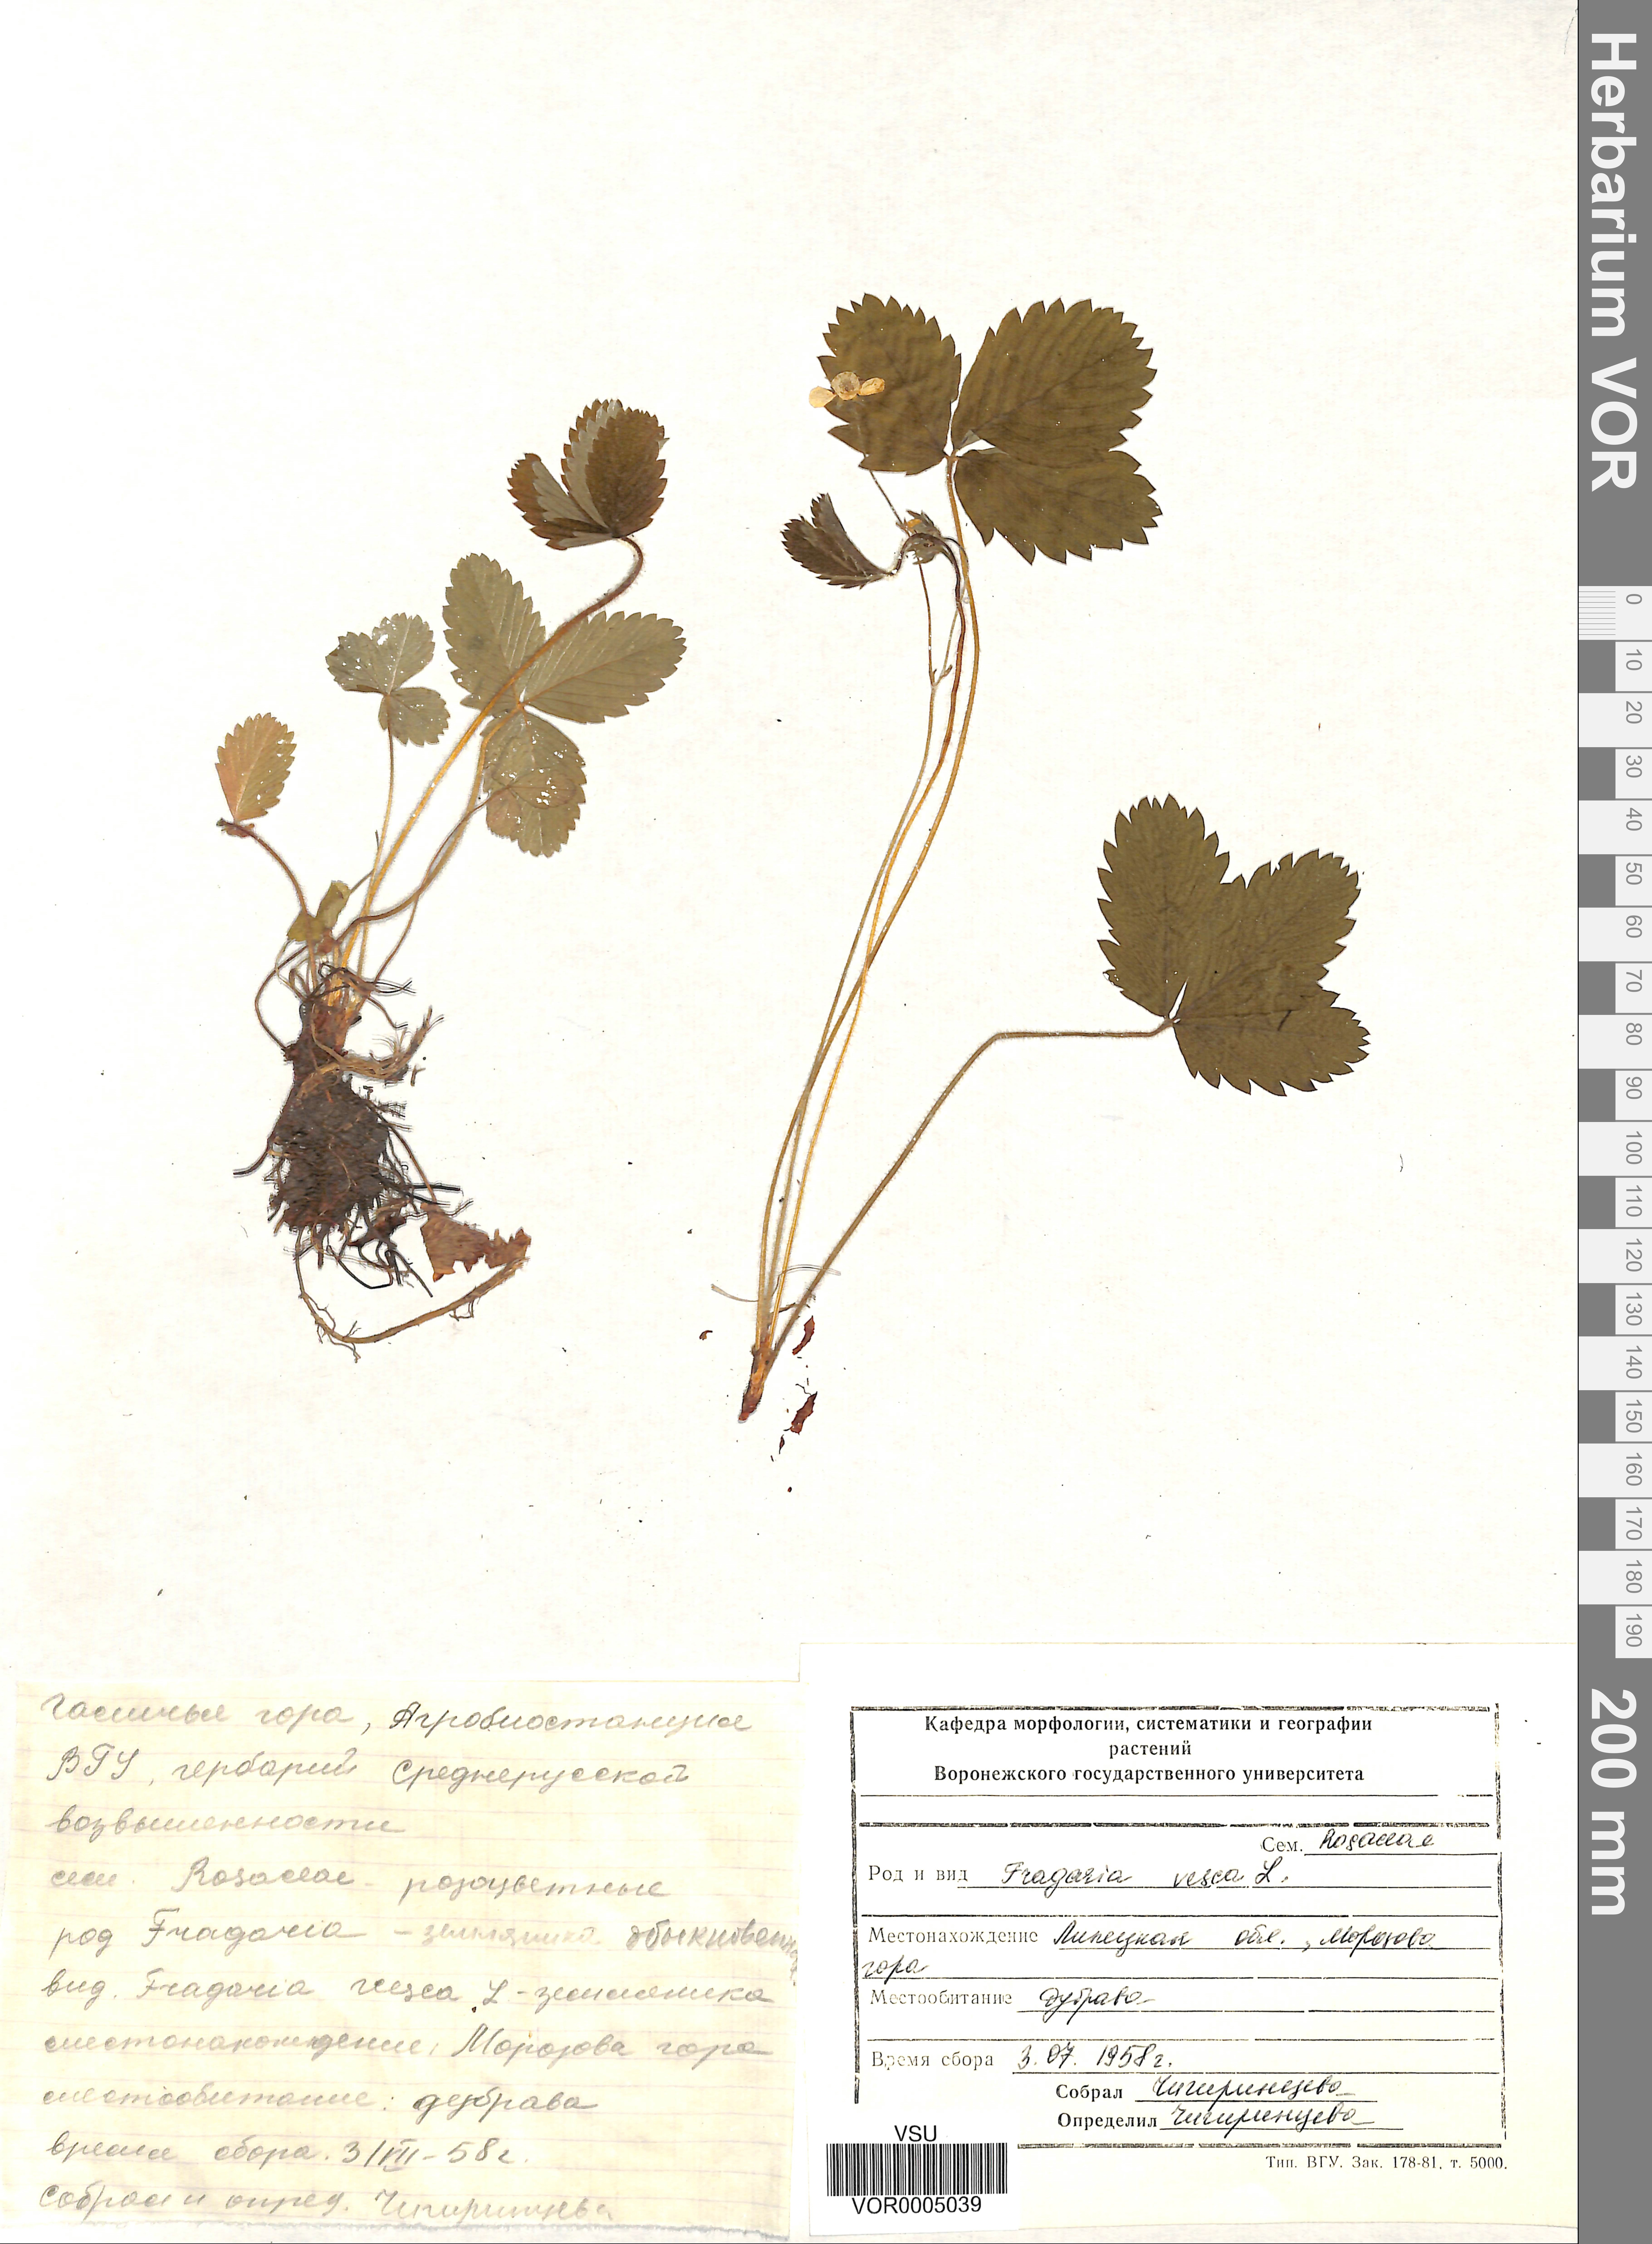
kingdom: Plantae
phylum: Tracheophyta
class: Magnoliopsida
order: Rosales
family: Rosaceae
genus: Fragaria
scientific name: Fragaria vesca
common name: Wild strawberry
